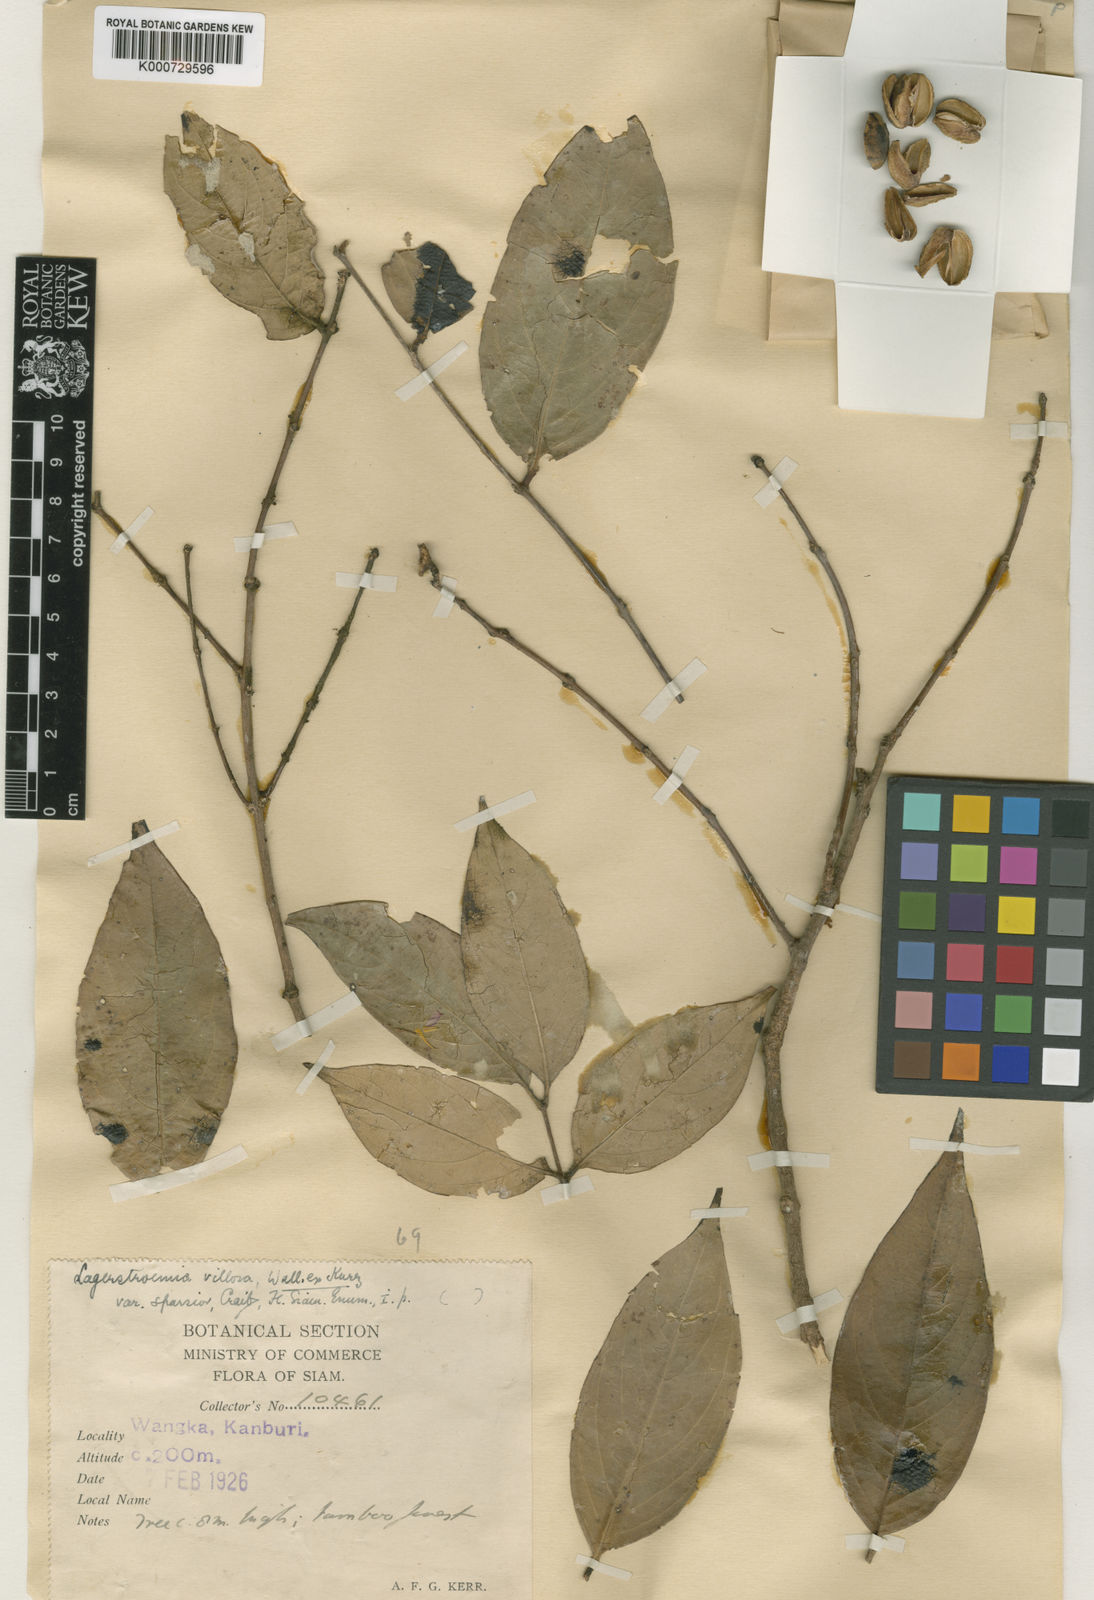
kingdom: Plantae
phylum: Tracheophyta
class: Magnoliopsida
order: Myrtales
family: Lythraceae
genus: Lagerstroemia
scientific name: Lagerstroemia villosa
